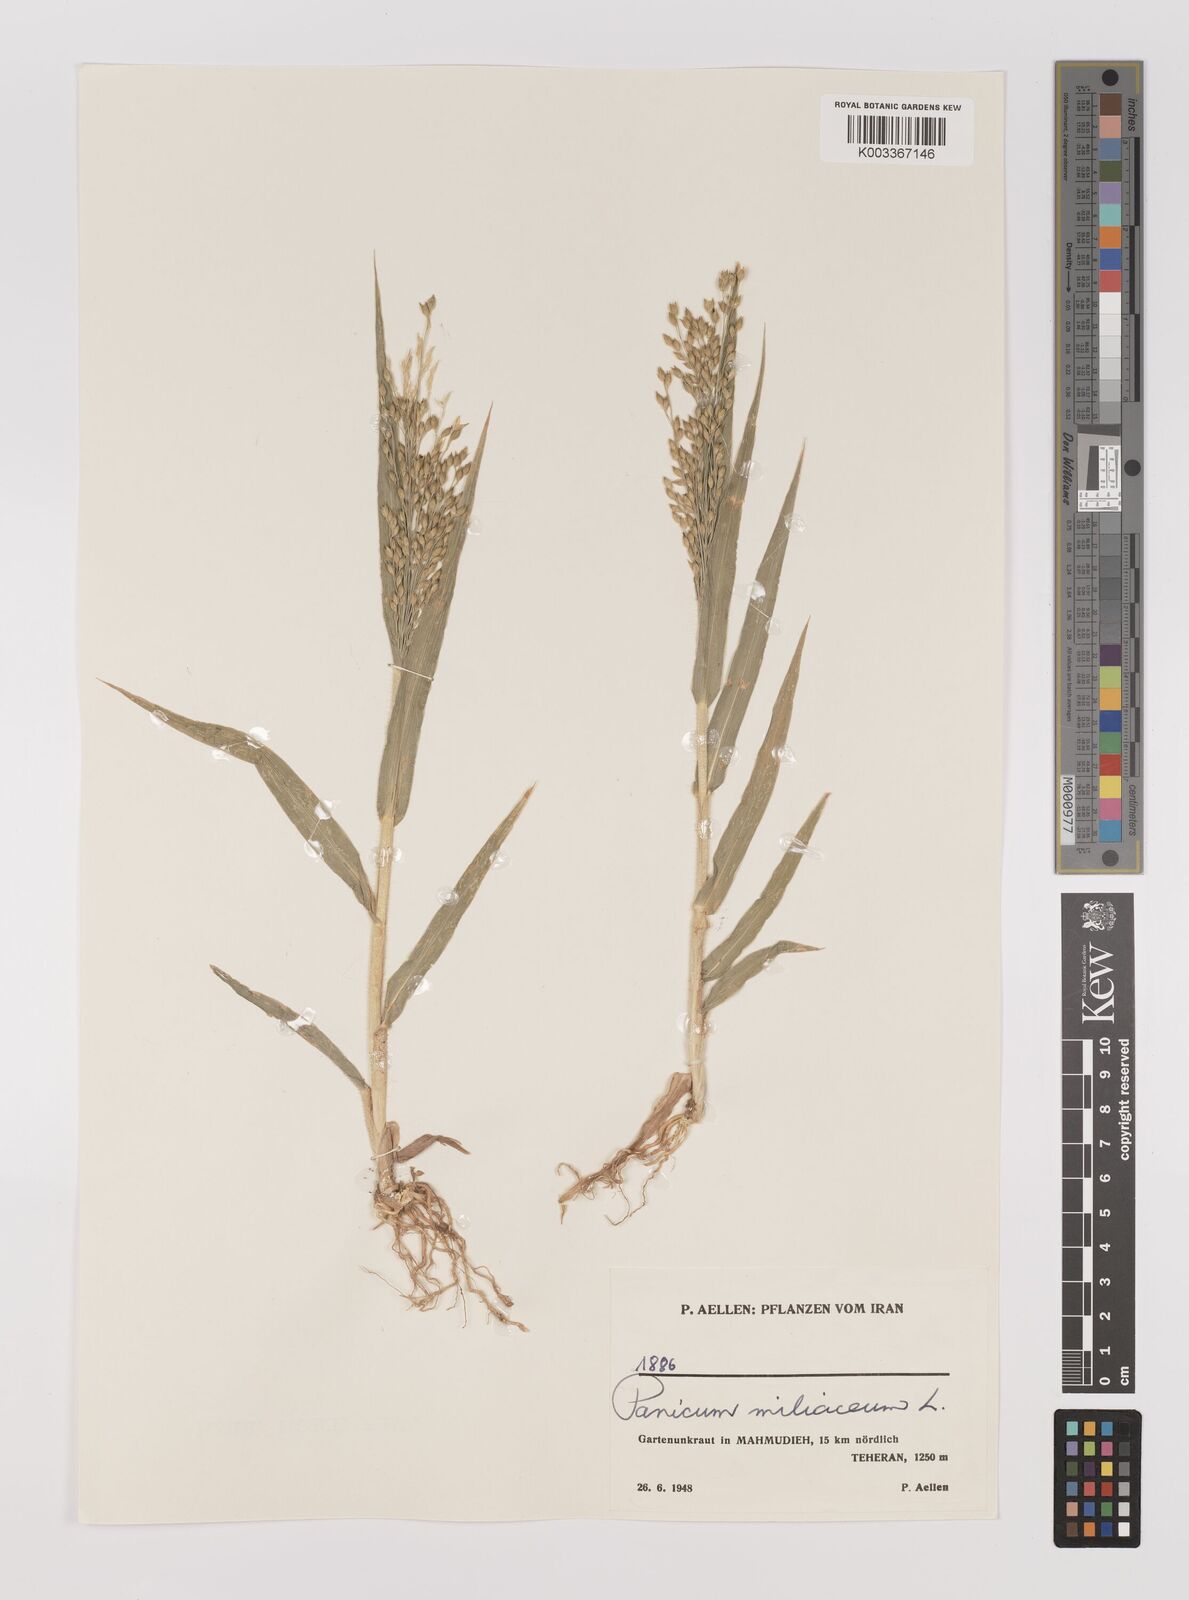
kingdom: Plantae
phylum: Tracheophyta
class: Liliopsida
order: Poales
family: Poaceae
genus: Panicum
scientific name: Panicum miliaceum
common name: Common millet
